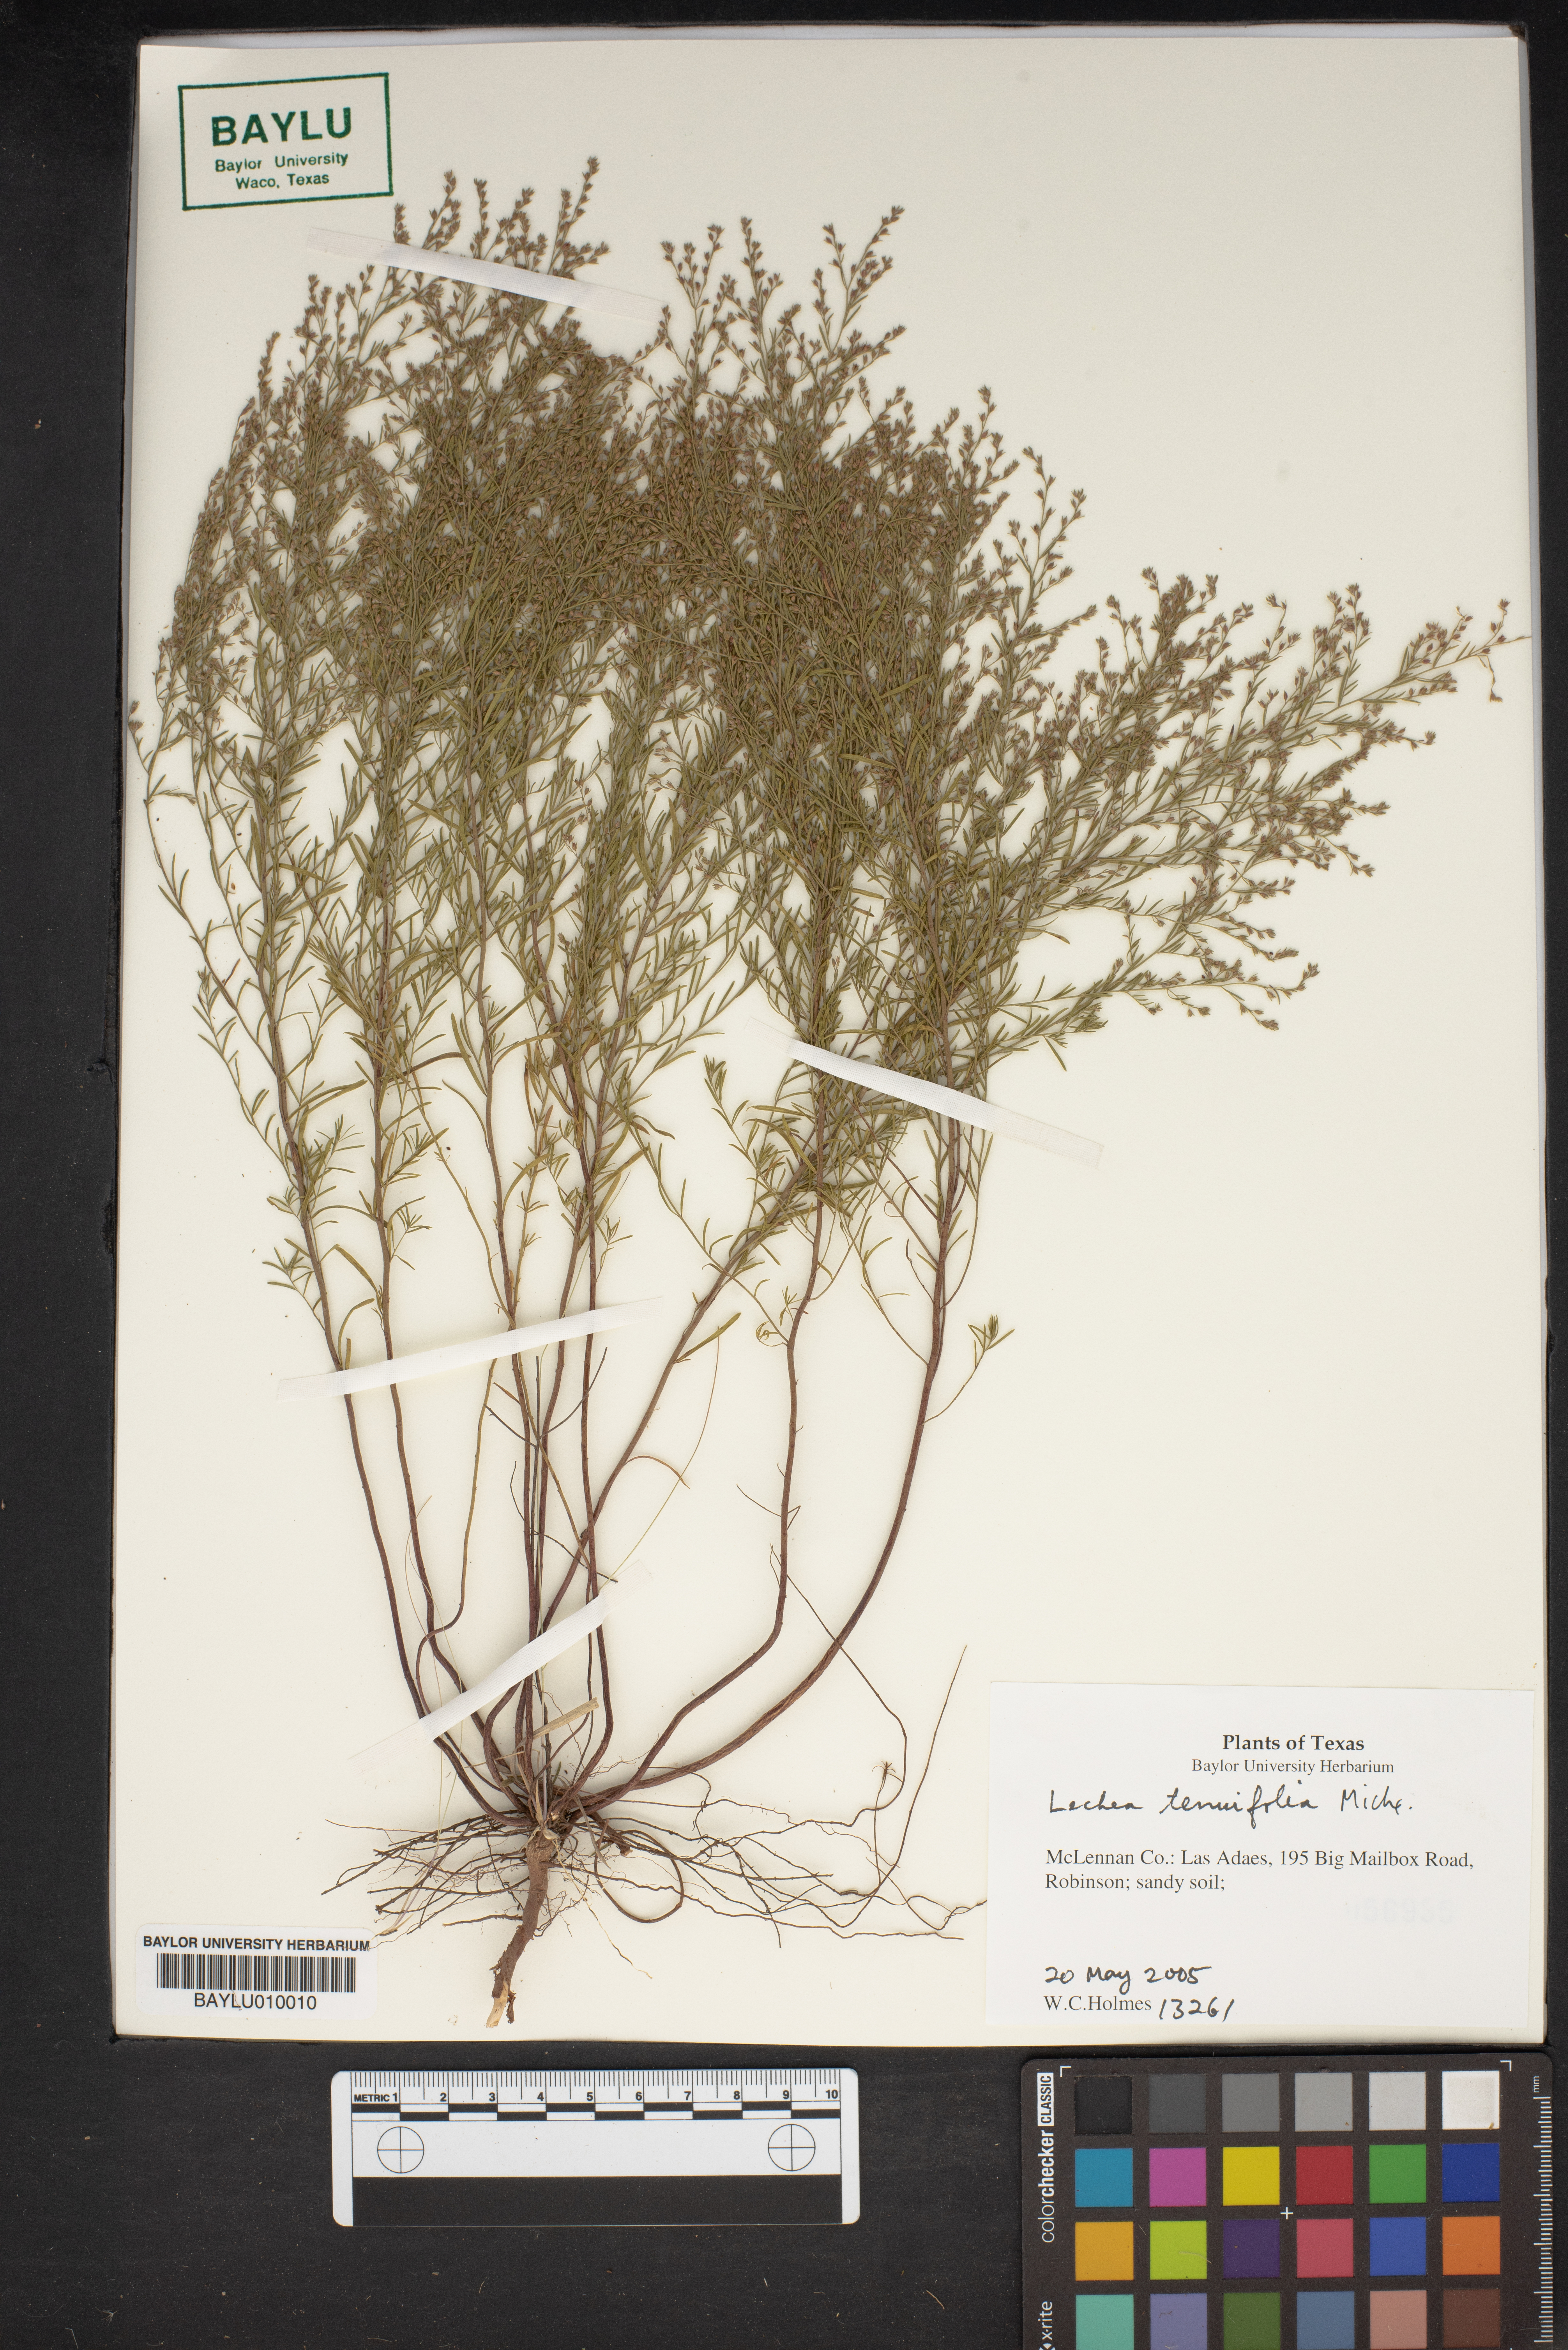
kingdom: Plantae
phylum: Tracheophyta
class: Magnoliopsida
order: Malvales
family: Cistaceae
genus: Lechea
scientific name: Lechea tenuifolia
